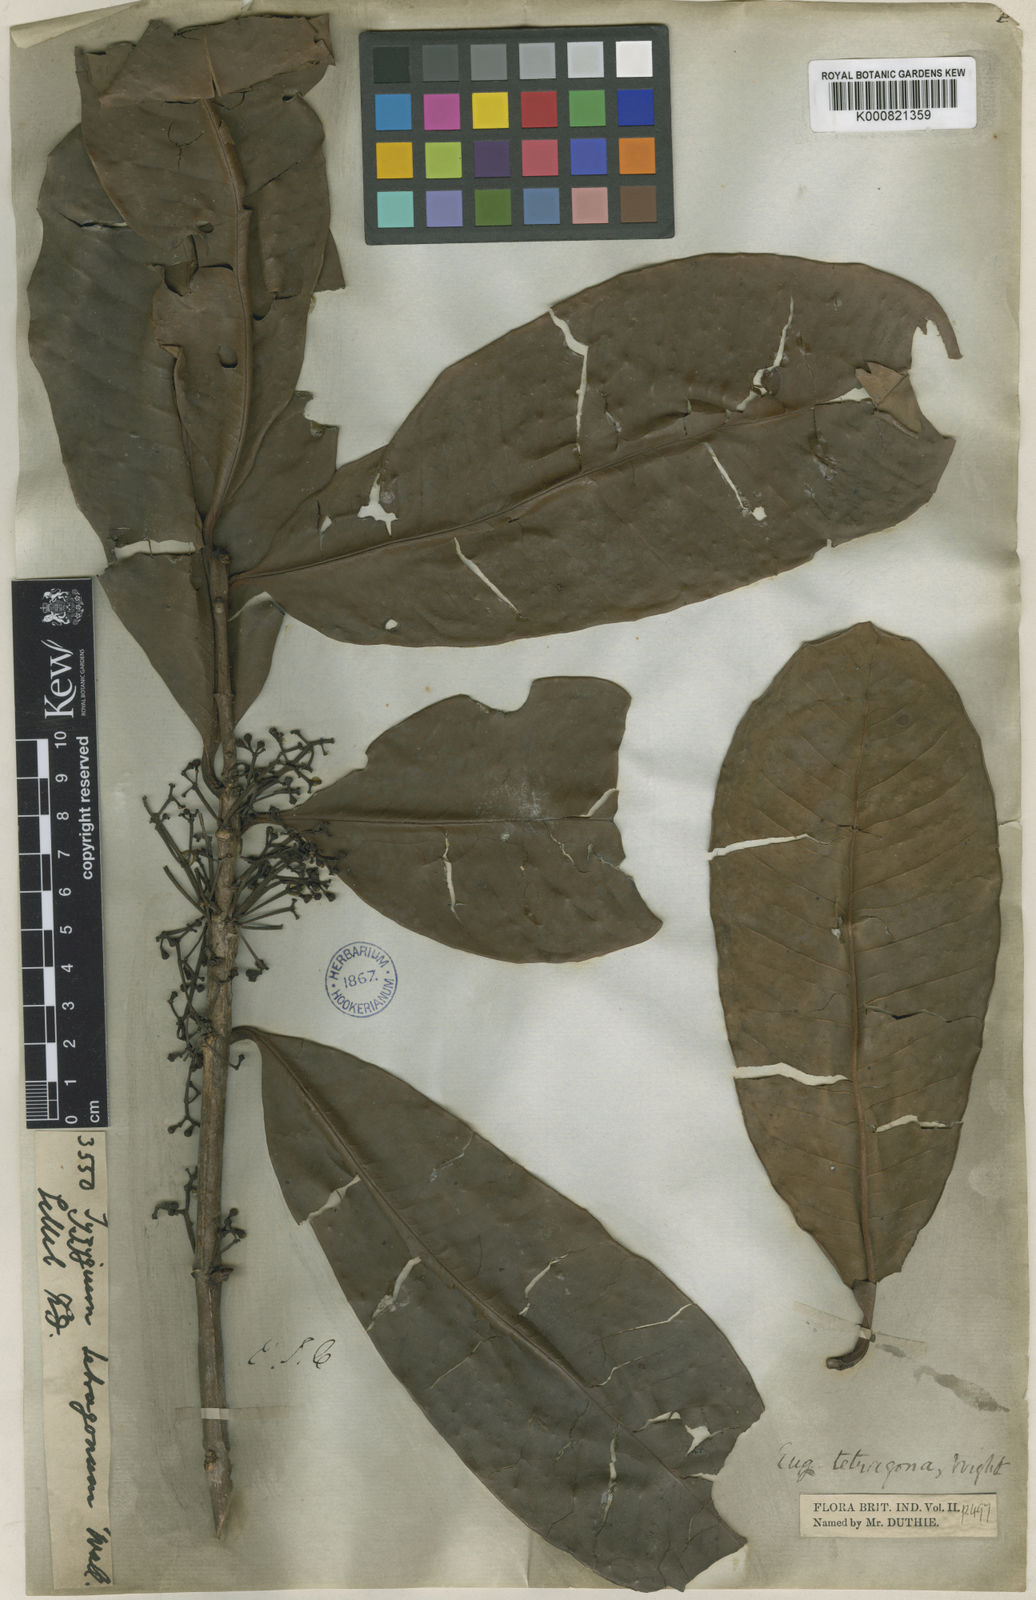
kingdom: Plantae
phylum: Tracheophyta
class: Magnoliopsida
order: Myrtales
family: Myrtaceae
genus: Syzygium
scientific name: Syzygium tetragonum
